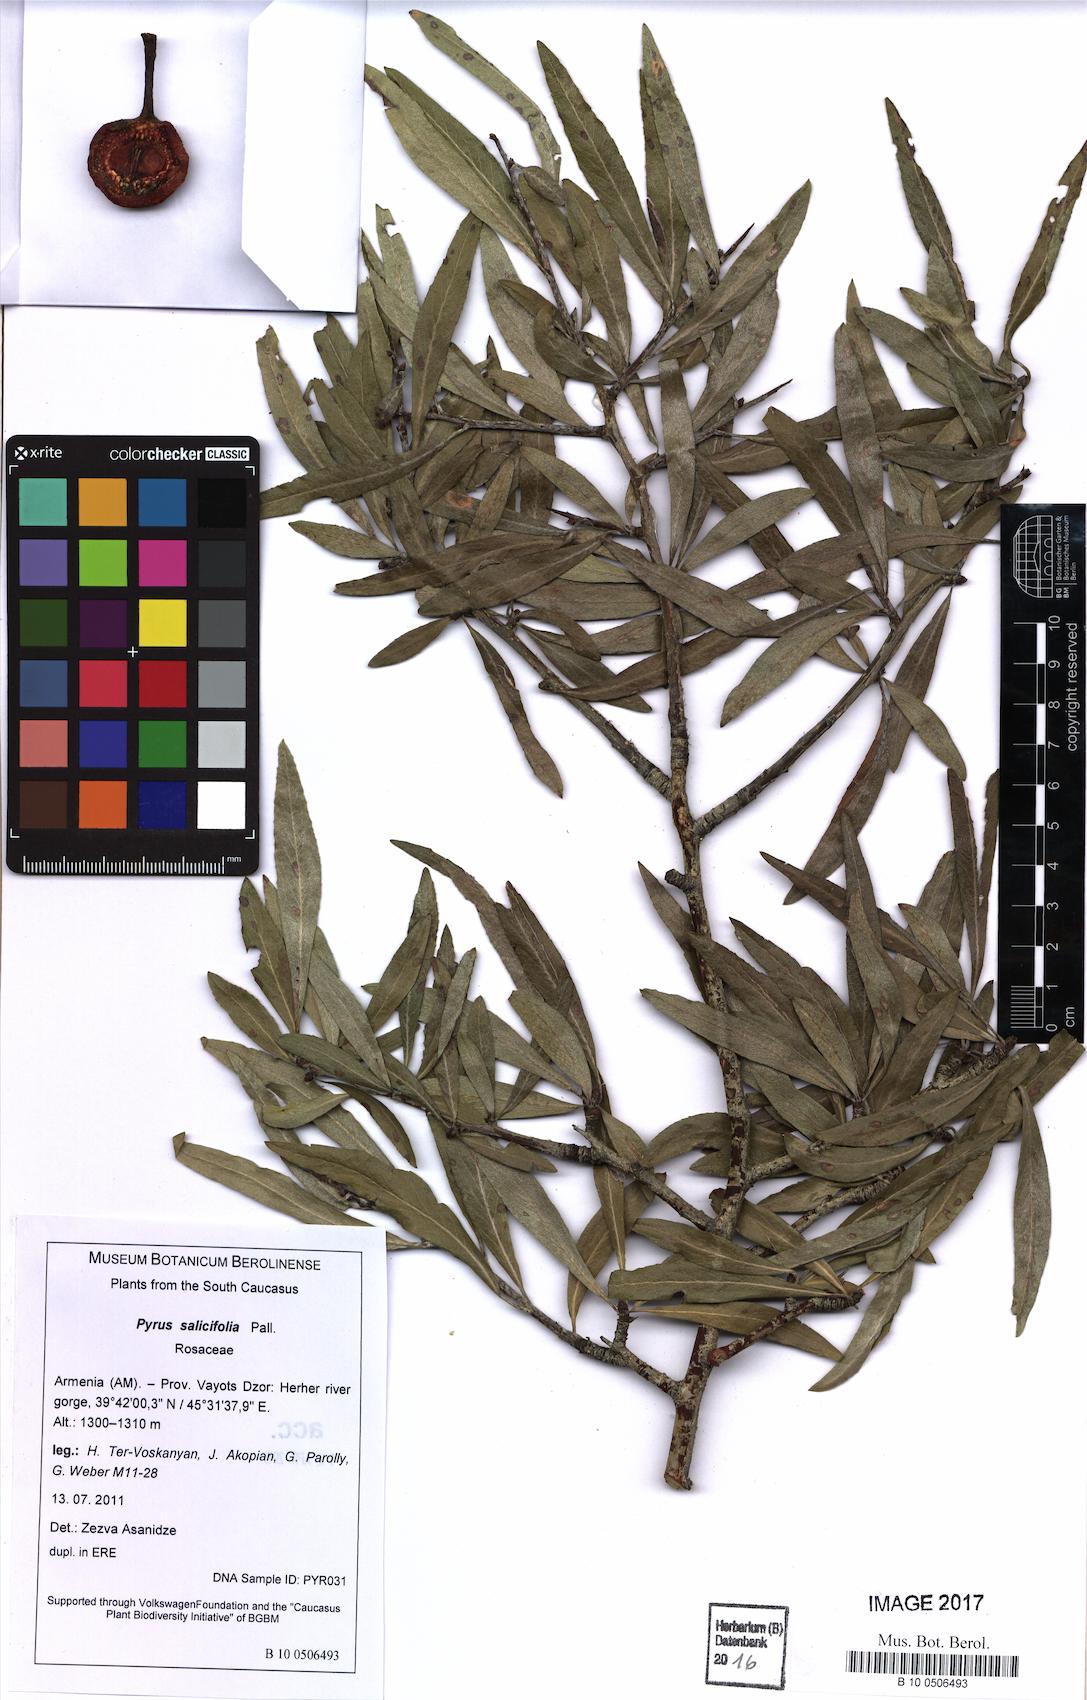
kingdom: Plantae
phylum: Tracheophyta
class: Magnoliopsida
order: Rosales
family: Rosaceae
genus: Pyrus
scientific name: Pyrus salicifolia
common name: Willow-leaved pear
